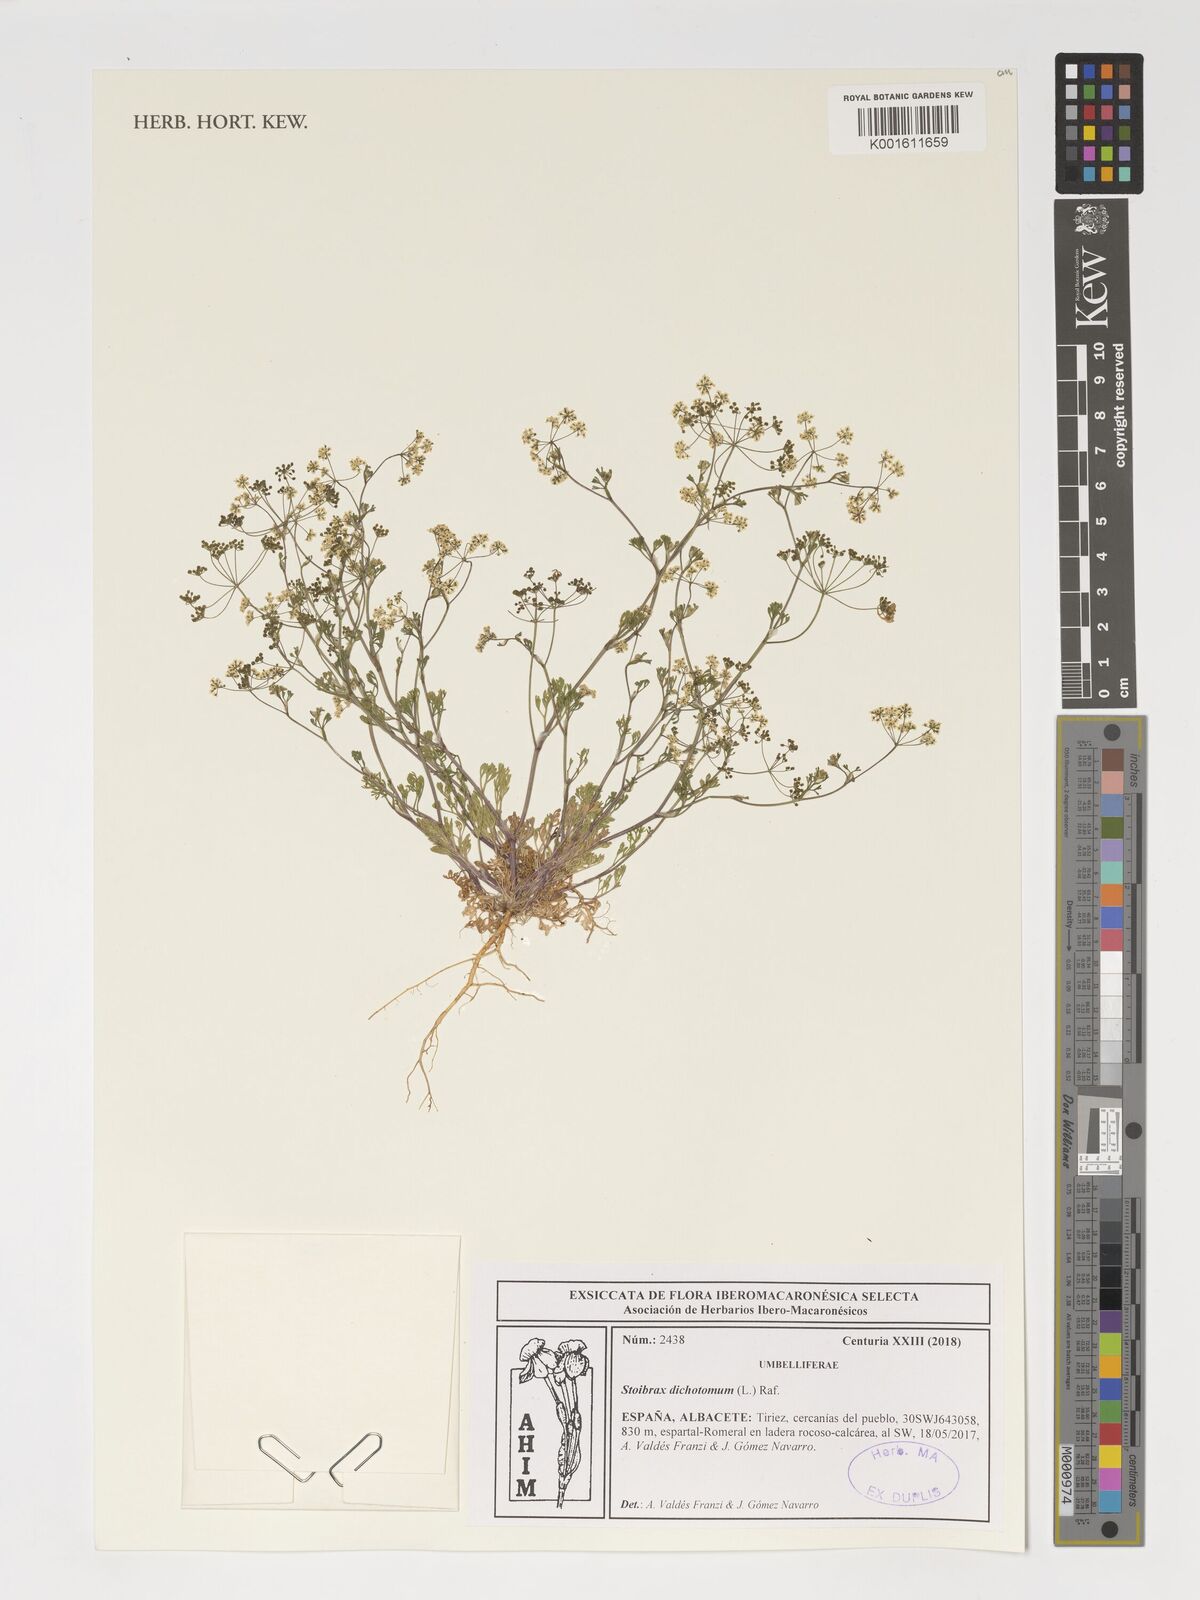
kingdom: Plantae
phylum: Tracheophyta
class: Magnoliopsida
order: Apiales
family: Apiaceae
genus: Stoibrax
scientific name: Stoibrax dichotomum
